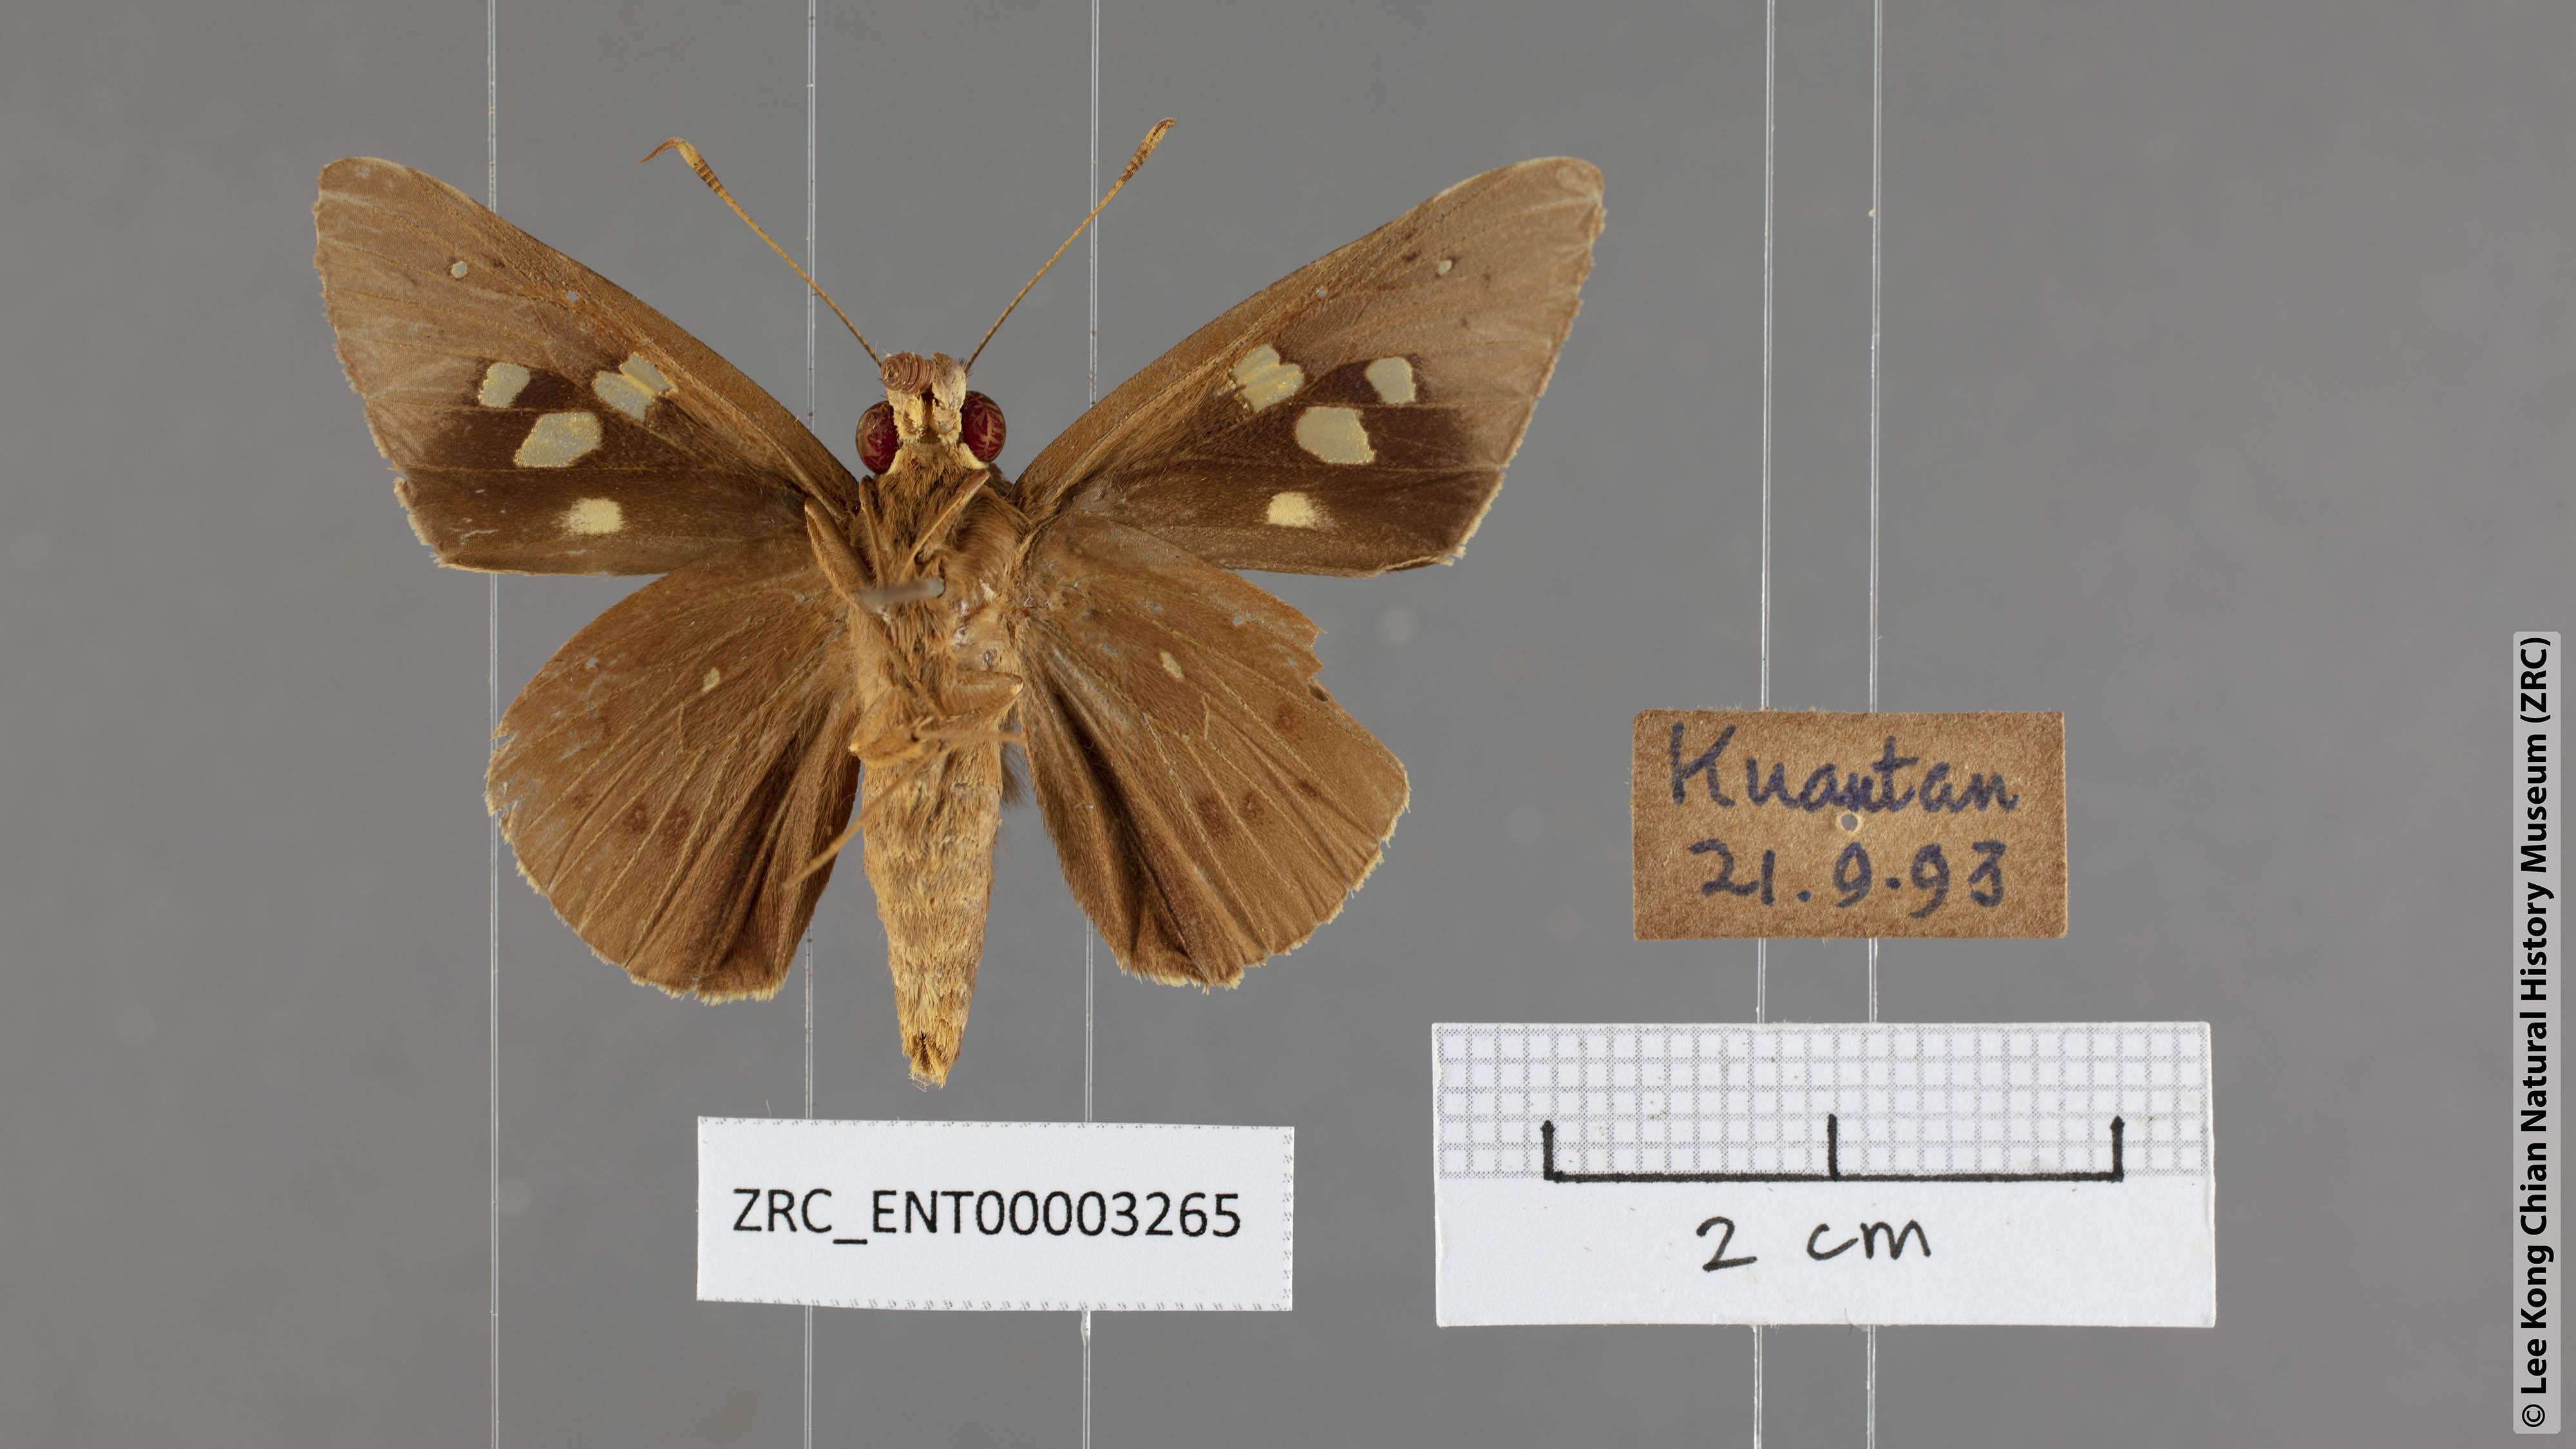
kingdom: Animalia
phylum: Arthropoda
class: Insecta
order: Lepidoptera
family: Hesperiidae
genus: Hidari
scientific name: Hidari irava
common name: Coconut skipper
